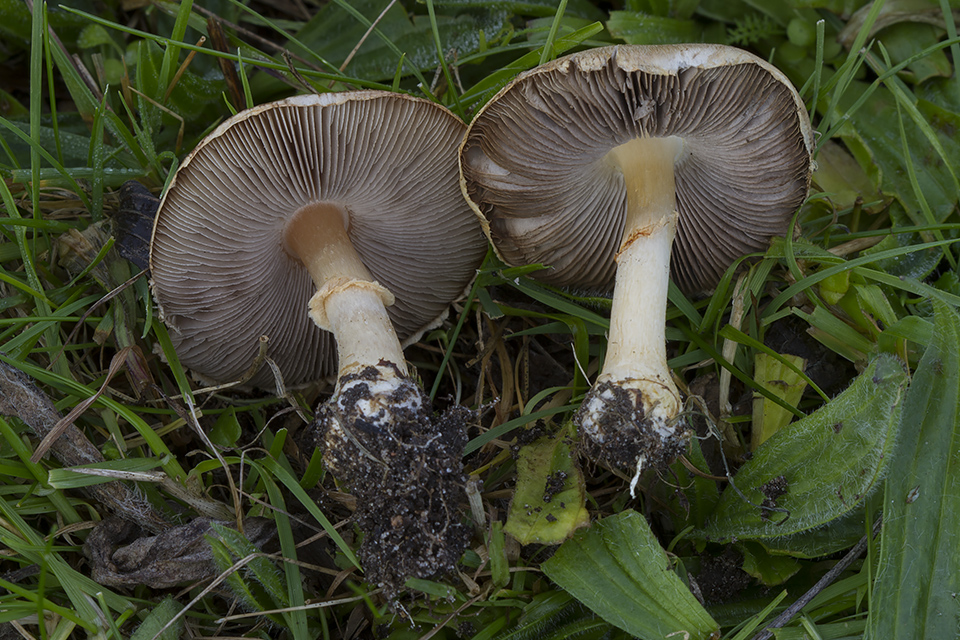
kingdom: Fungi
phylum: Basidiomycota
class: Agaricomycetes
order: Agaricales
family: Agaricaceae
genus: Agaricus
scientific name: Agaricus brunneolus
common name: purpur-champignon
